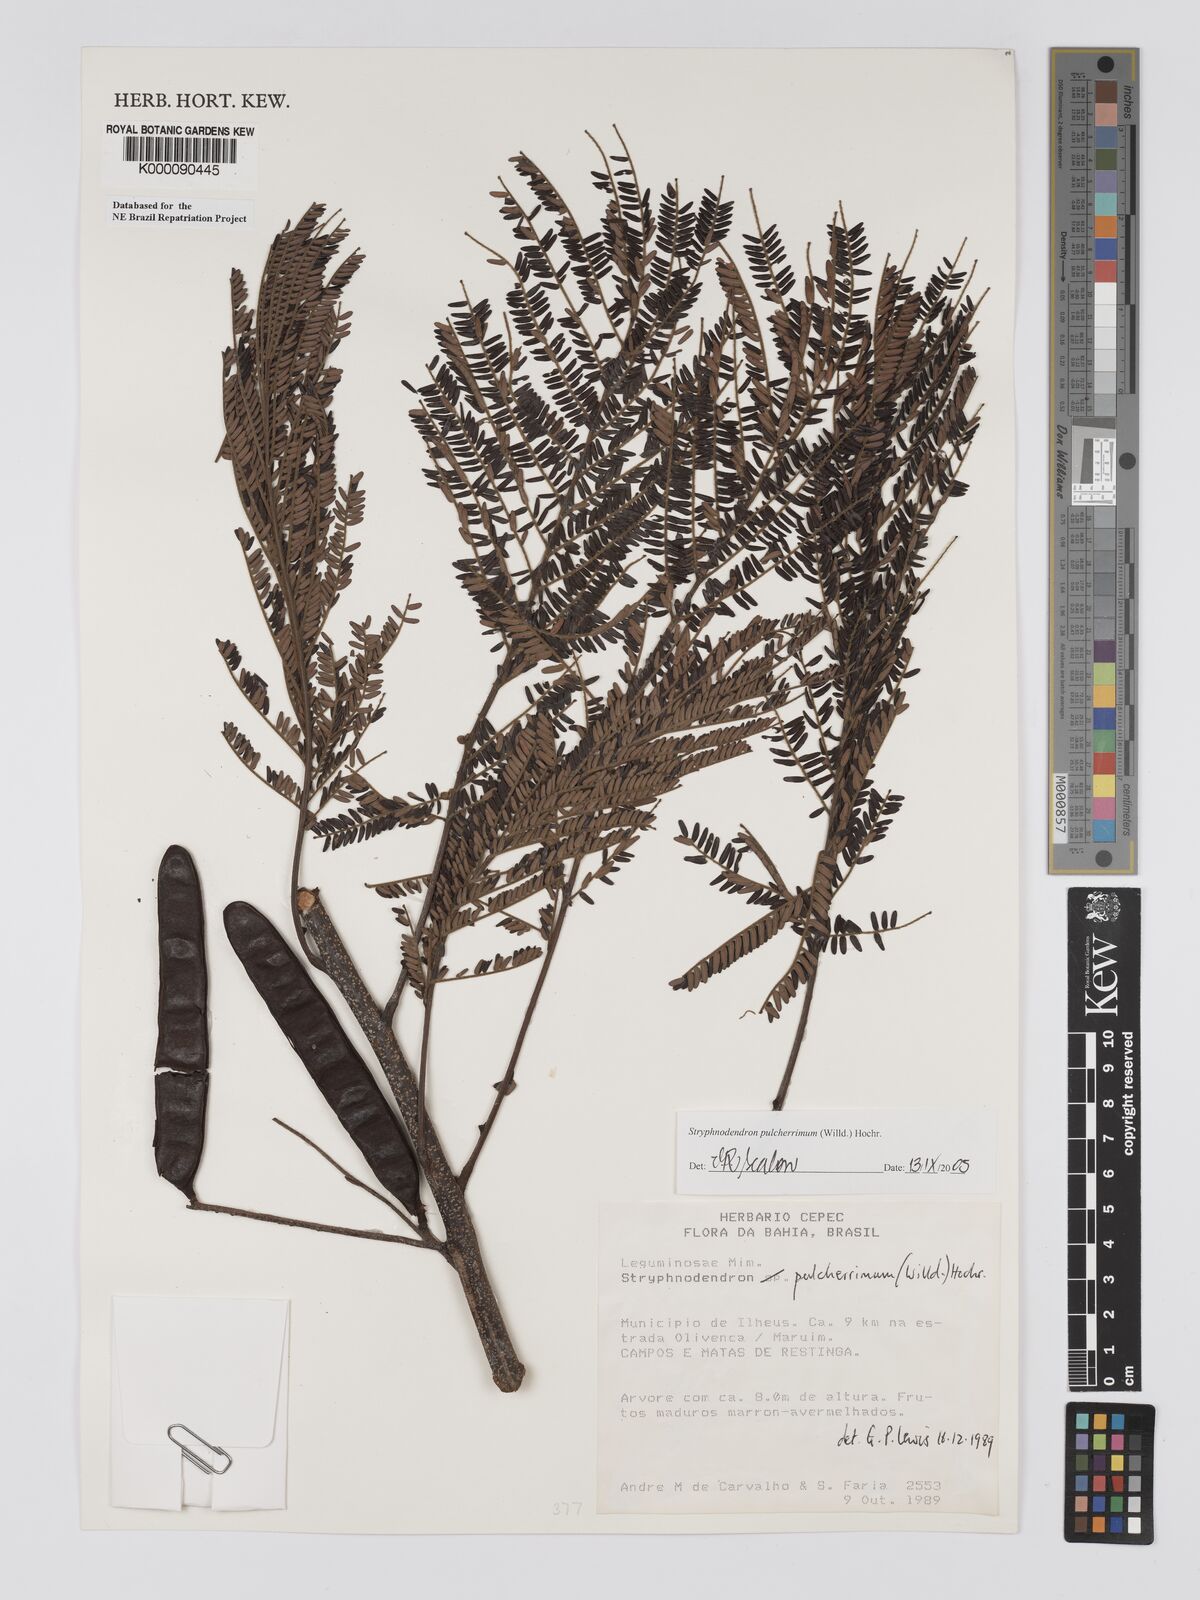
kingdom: Plantae
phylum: Tracheophyta
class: Magnoliopsida
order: Fabales
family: Fabaceae
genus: Stryphnodendron
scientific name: Stryphnodendron pulcherrimum
